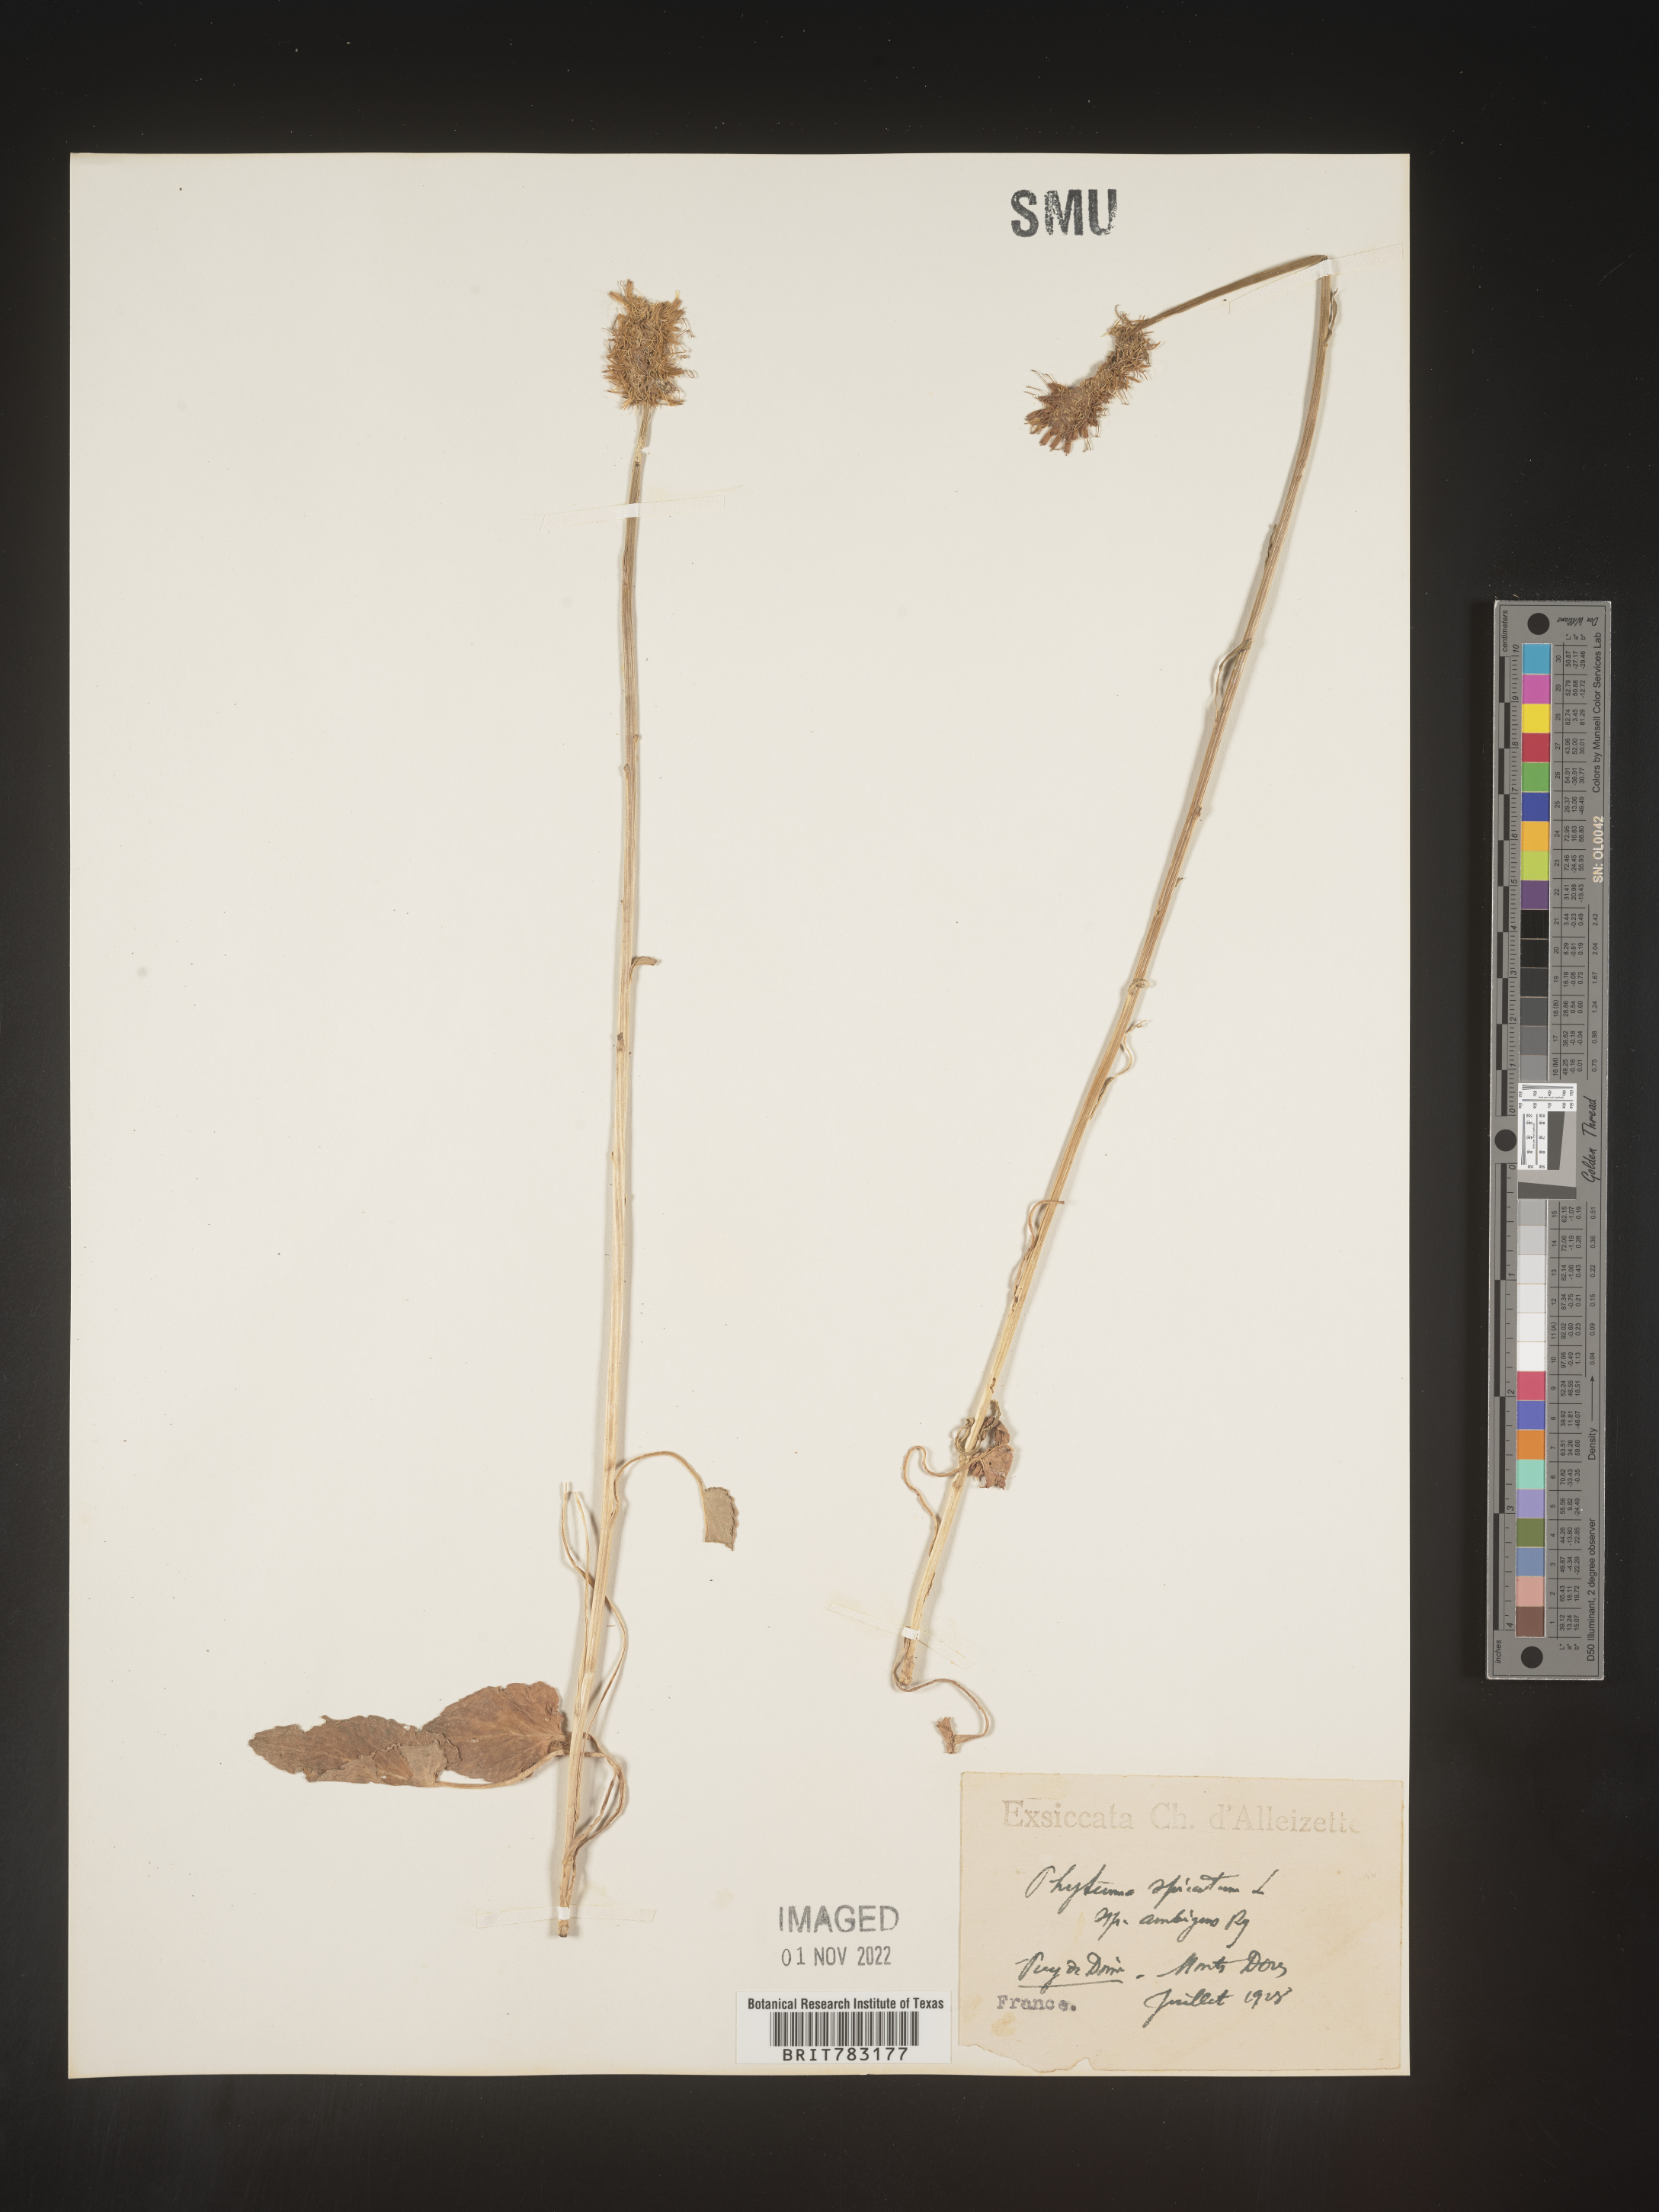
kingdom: Plantae
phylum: Tracheophyta
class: Magnoliopsida
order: Asterales
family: Campanulaceae
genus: Phyteuma
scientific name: Phyteuma
